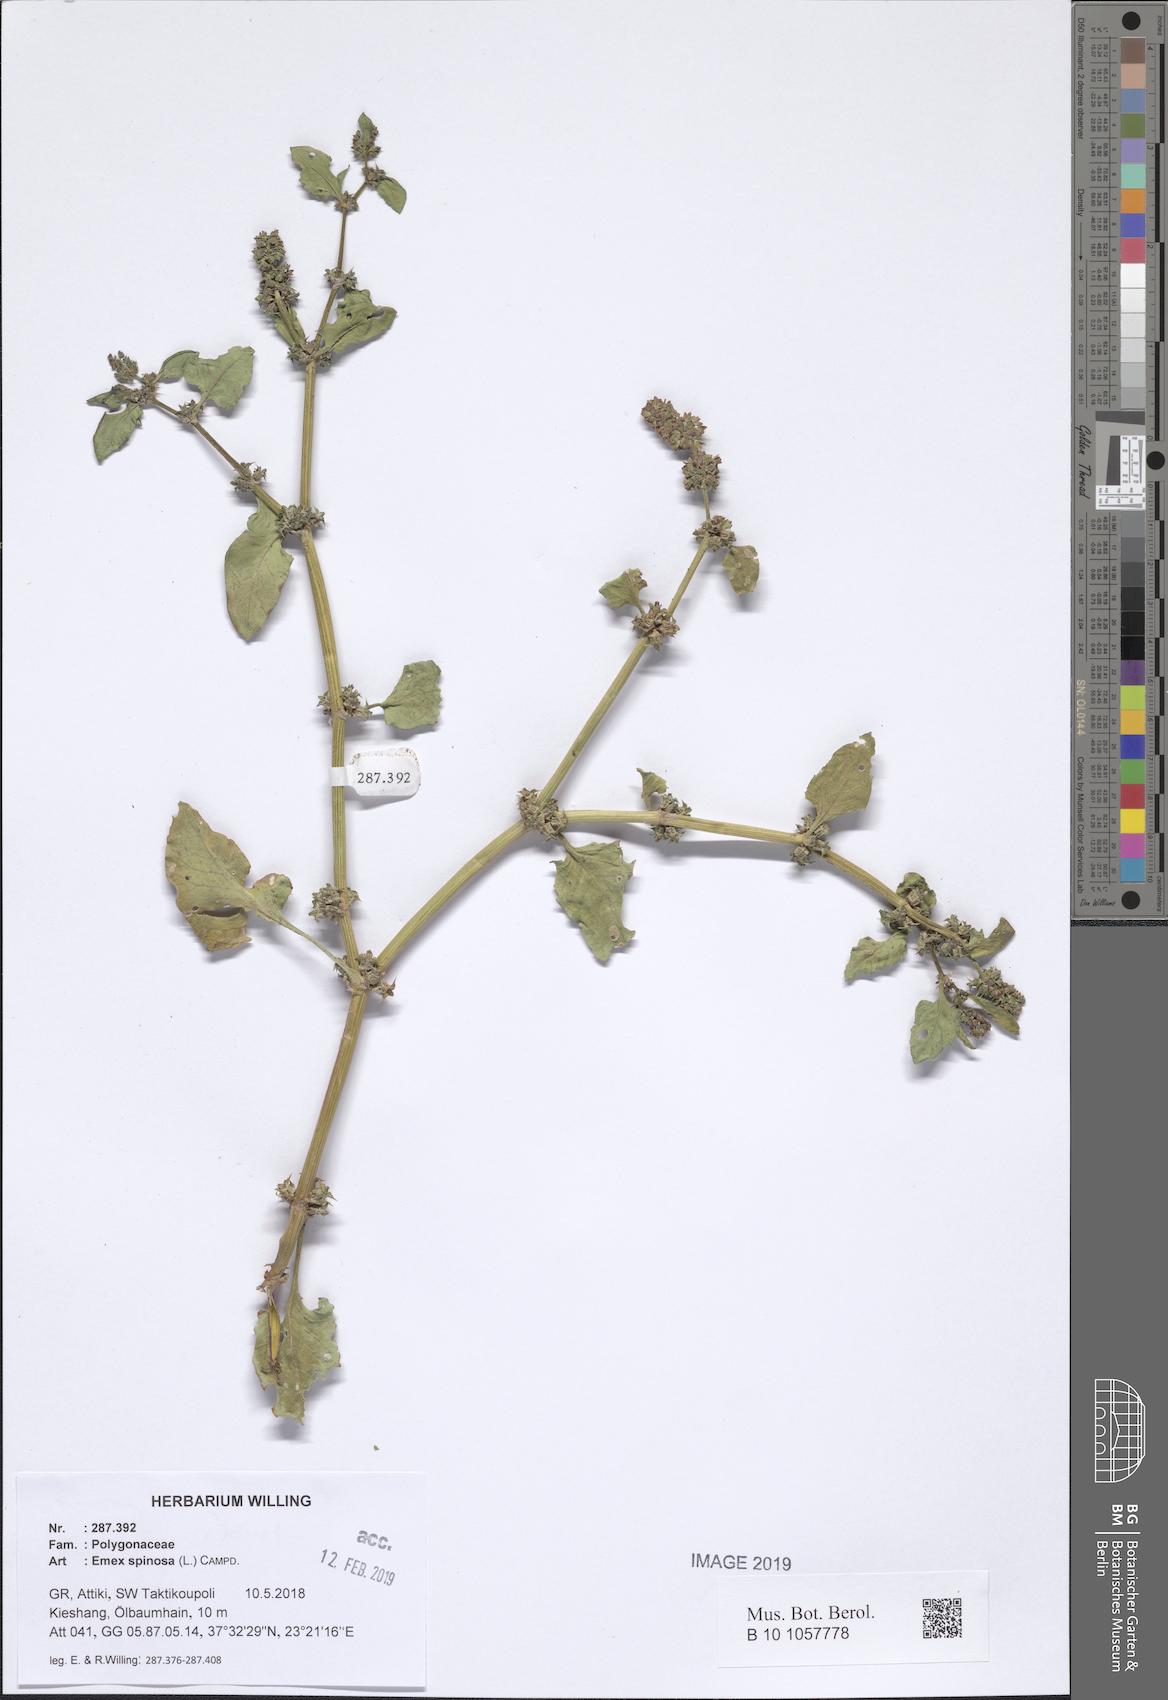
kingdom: Plantae
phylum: Tracheophyta
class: Magnoliopsida
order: Caryophyllales
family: Polygonaceae
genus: Rumex
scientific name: Rumex spinosus
